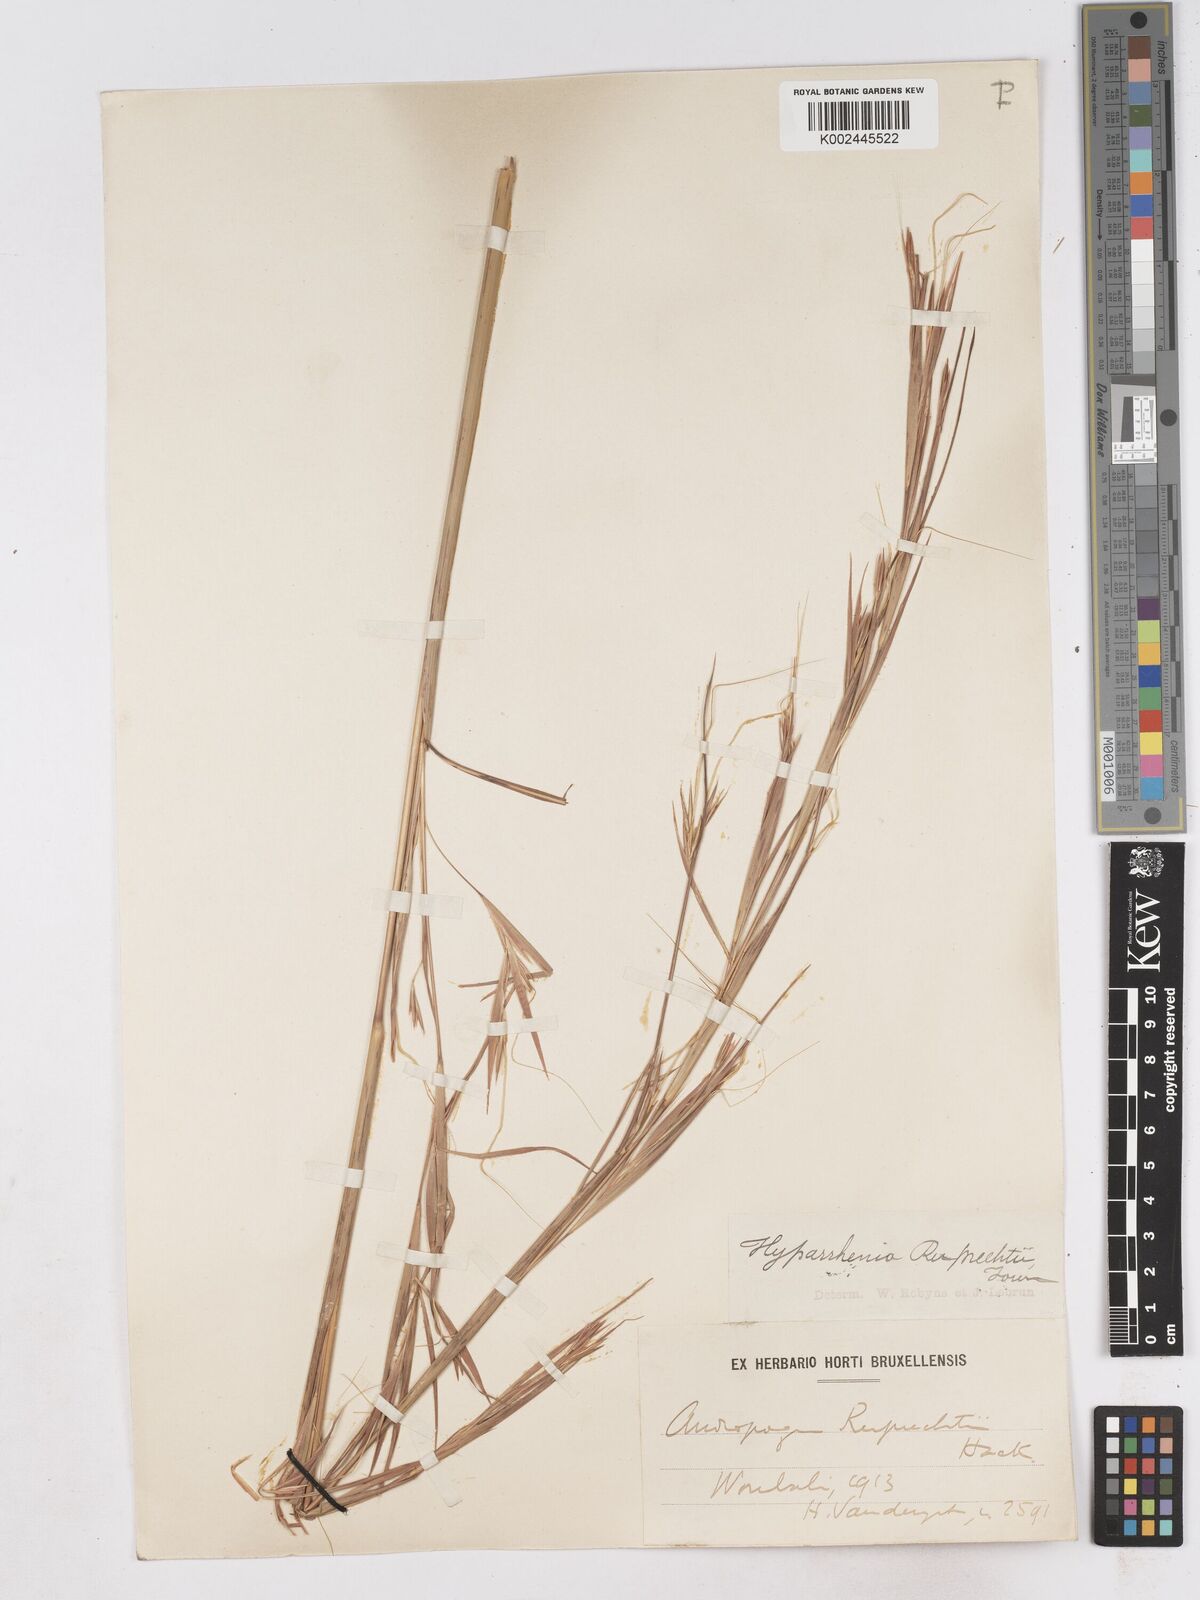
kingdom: Plantae
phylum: Tracheophyta
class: Liliopsida
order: Poales
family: Poaceae
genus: Hyperthelia
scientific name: Hyperthelia dissoluta
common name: Yellow thatching grass
